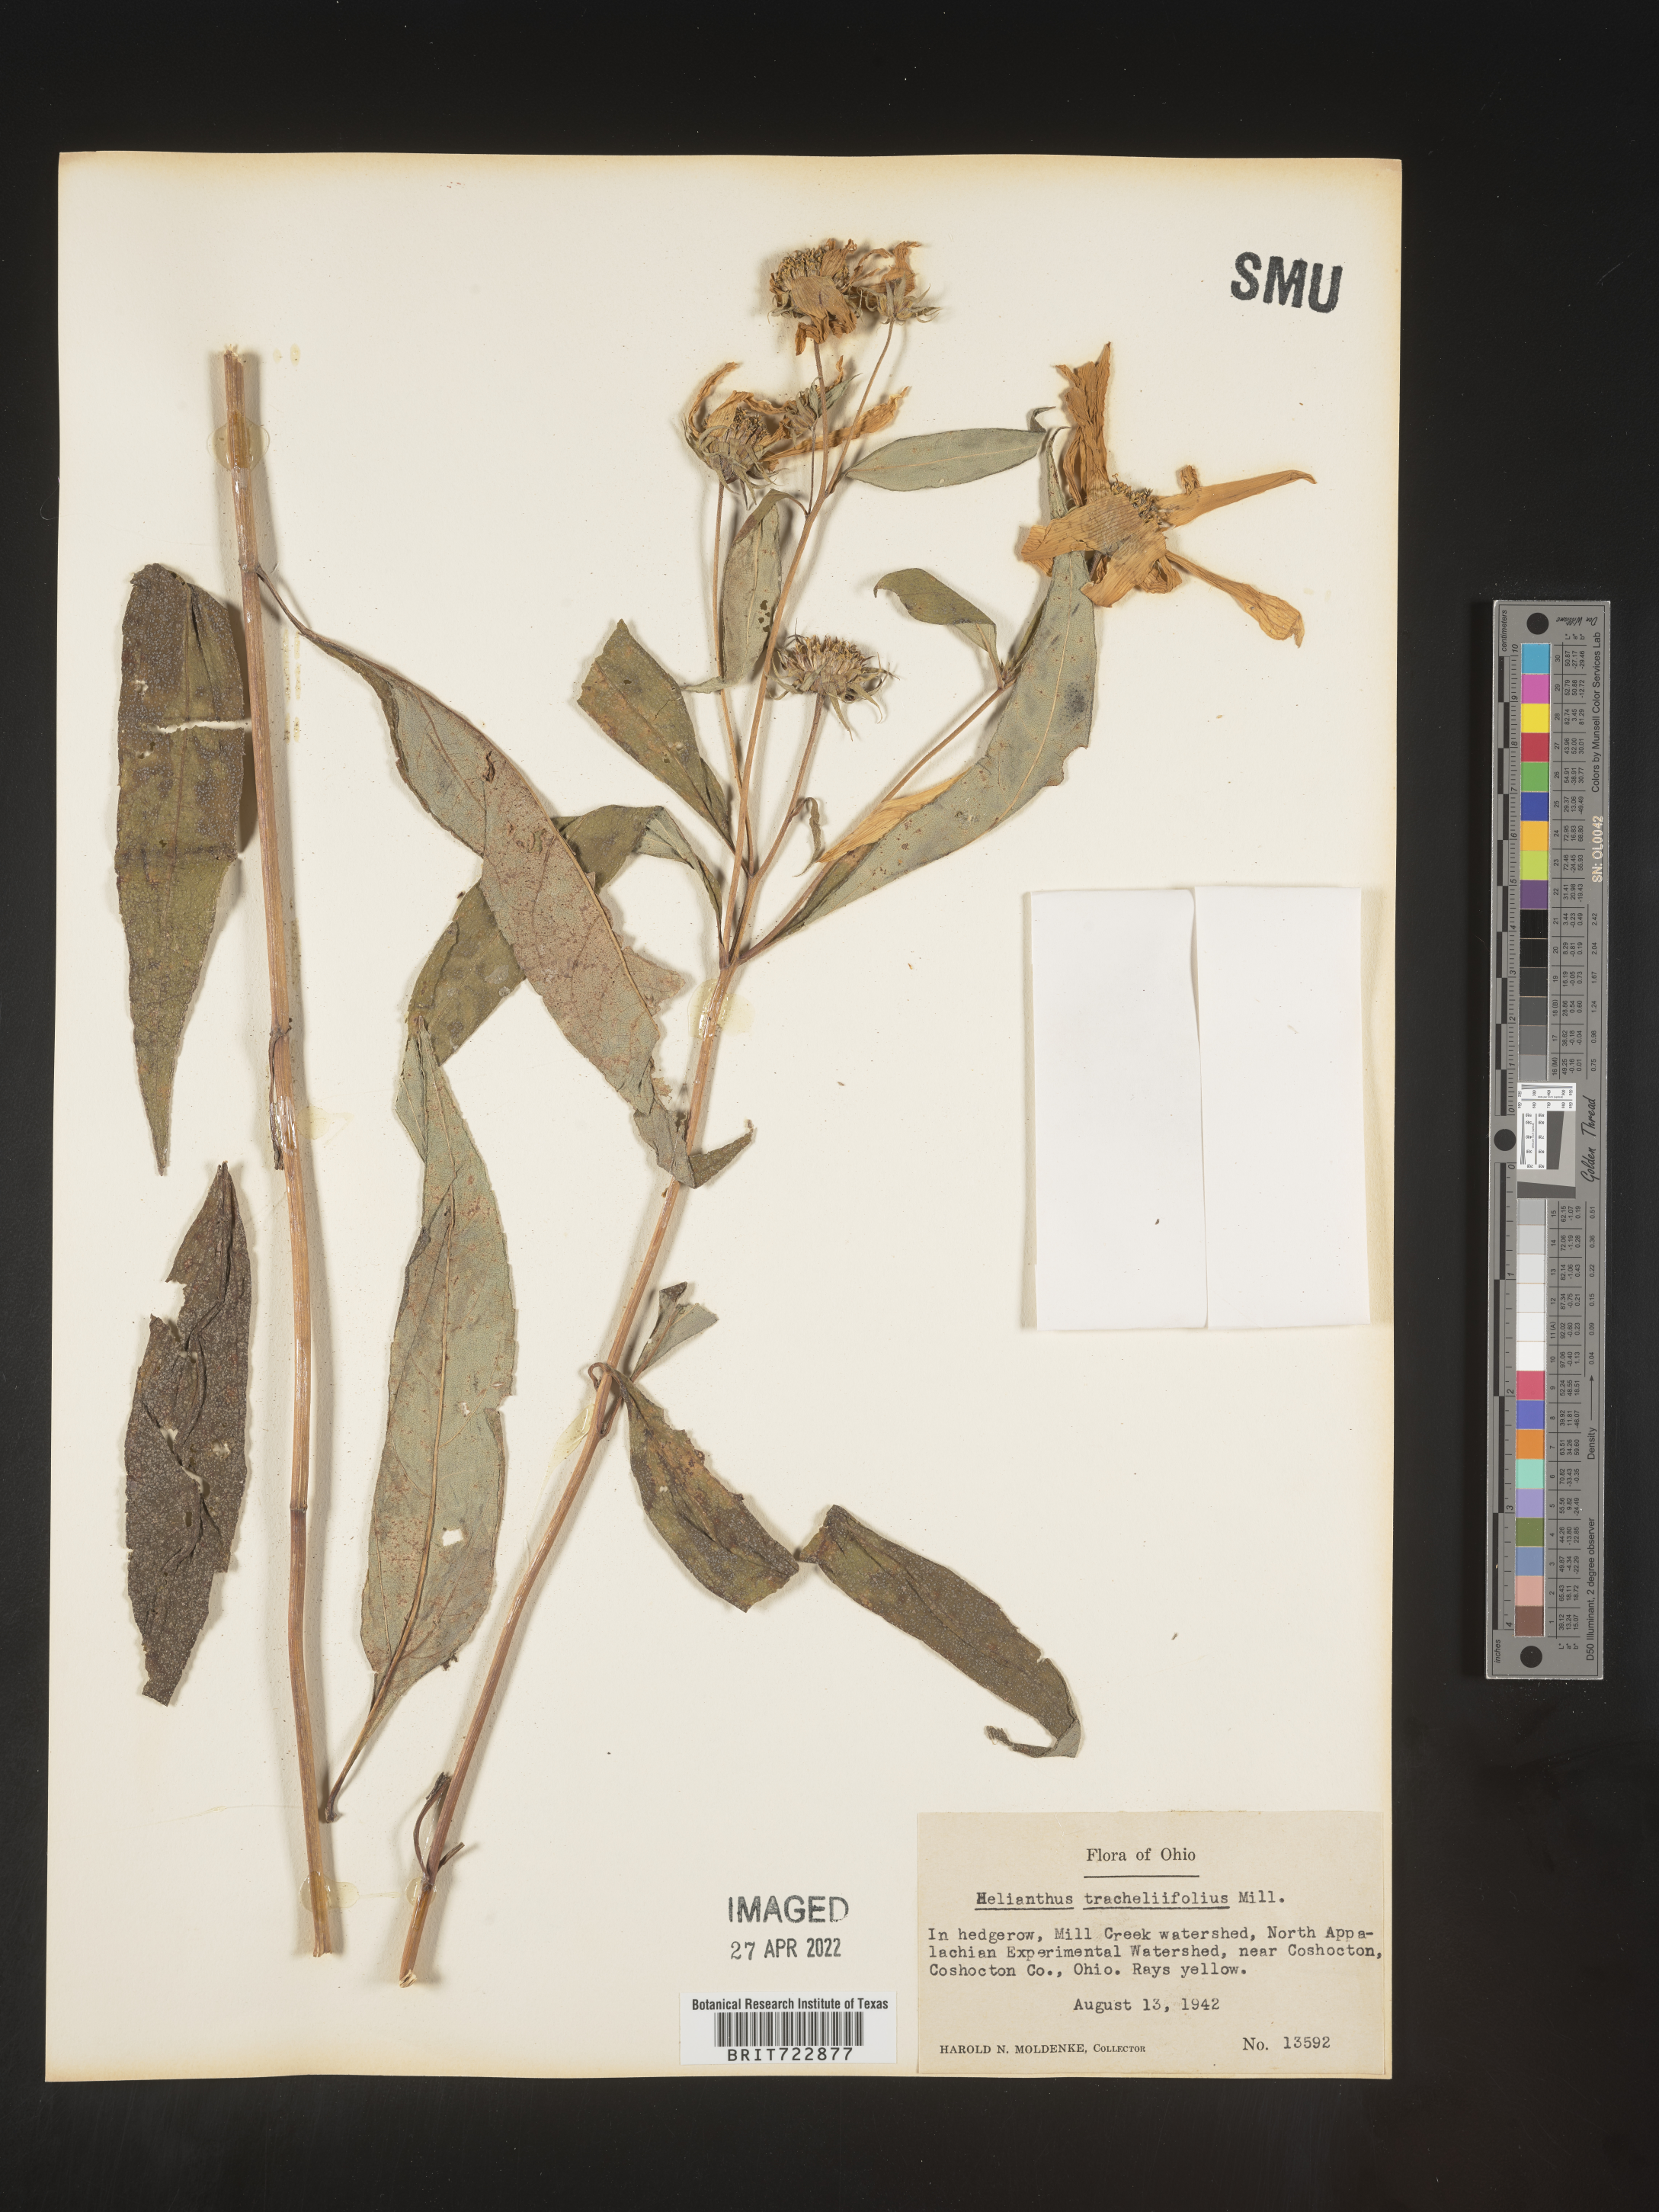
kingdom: Plantae
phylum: Tracheophyta
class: Magnoliopsida
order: Asterales
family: Asteraceae
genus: Helianthus
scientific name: Helianthus decapetalus
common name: Thin-leaved sunflower
